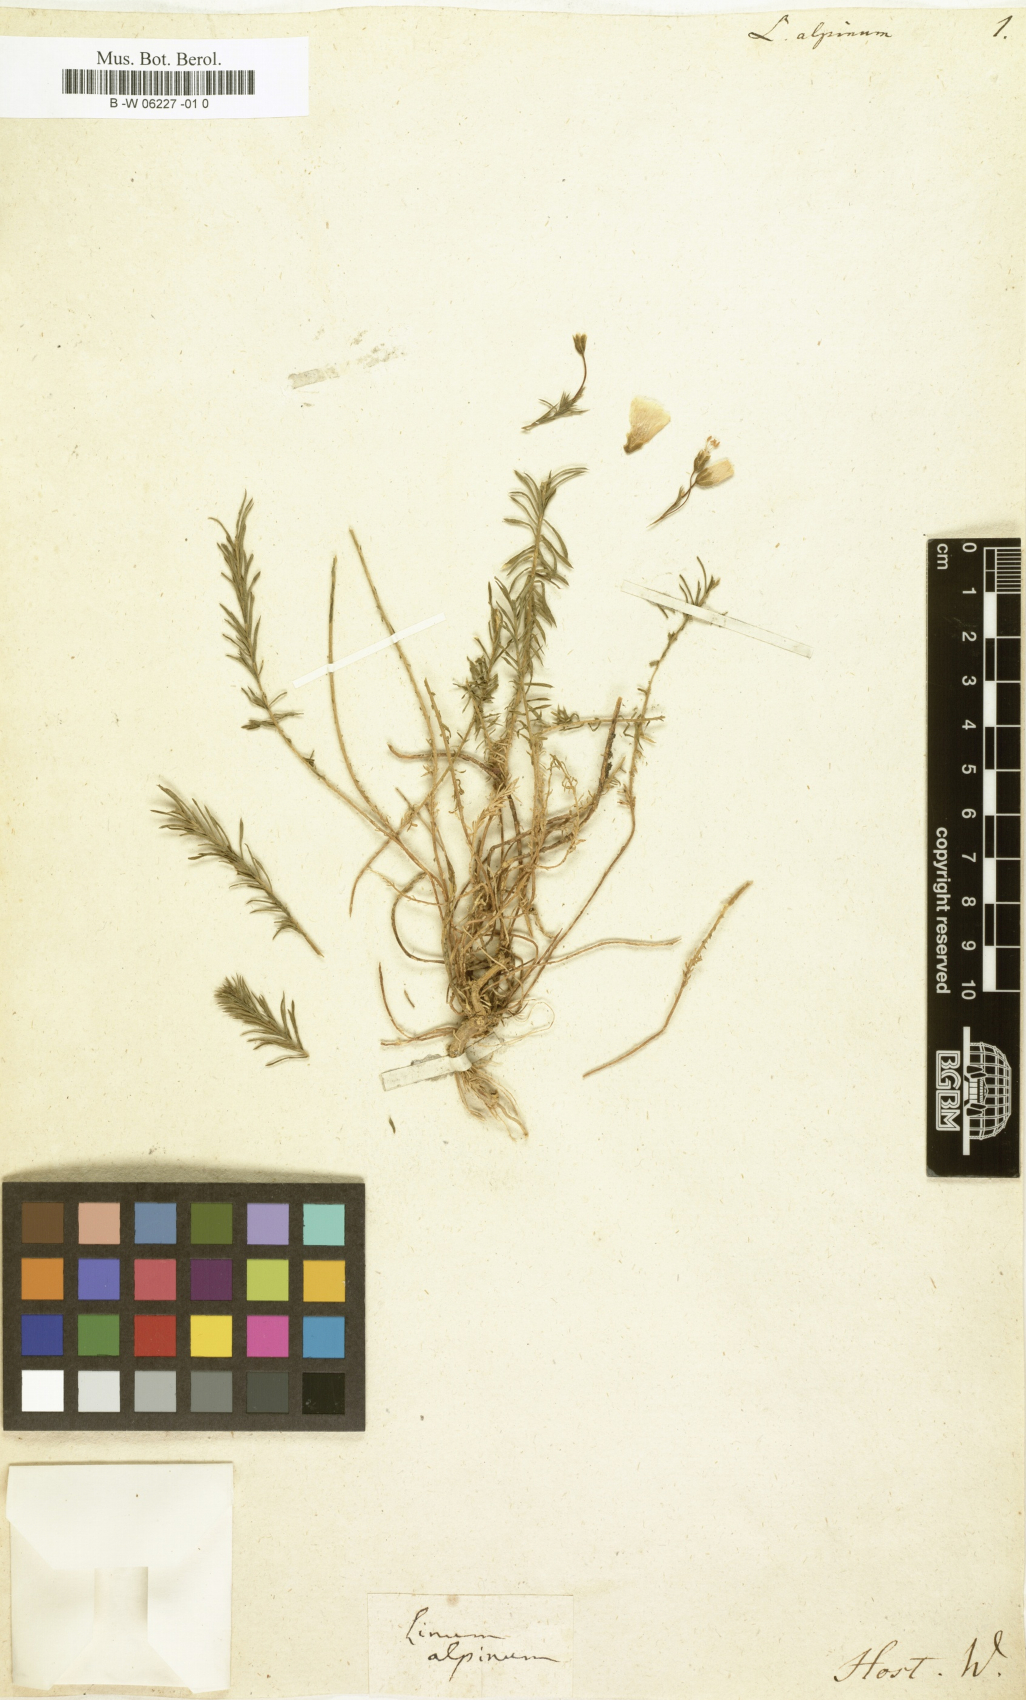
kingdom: Plantae
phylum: Tracheophyta
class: Magnoliopsida
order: Malpighiales
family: Linaceae
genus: Linum
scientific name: Linum alpinum
